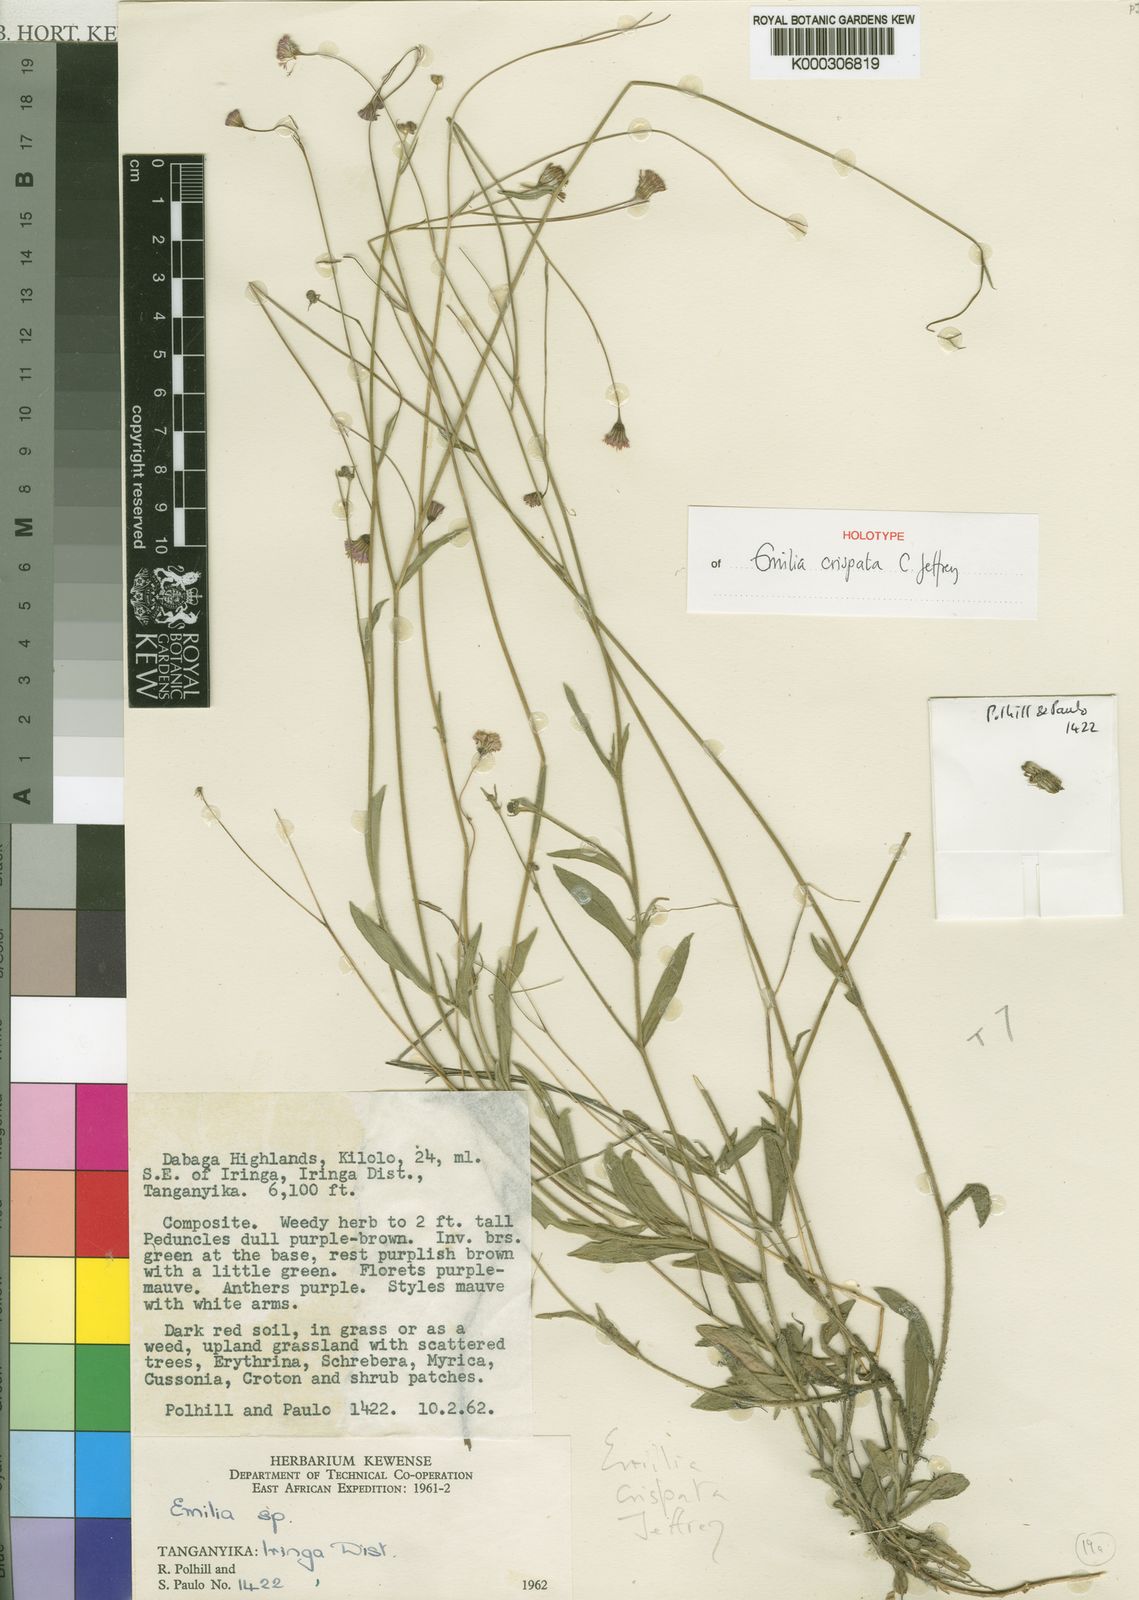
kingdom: Plantae
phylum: Tracheophyta
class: Magnoliopsida
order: Asterales
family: Asteraceae
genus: Emilia
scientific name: Emilia crispata
